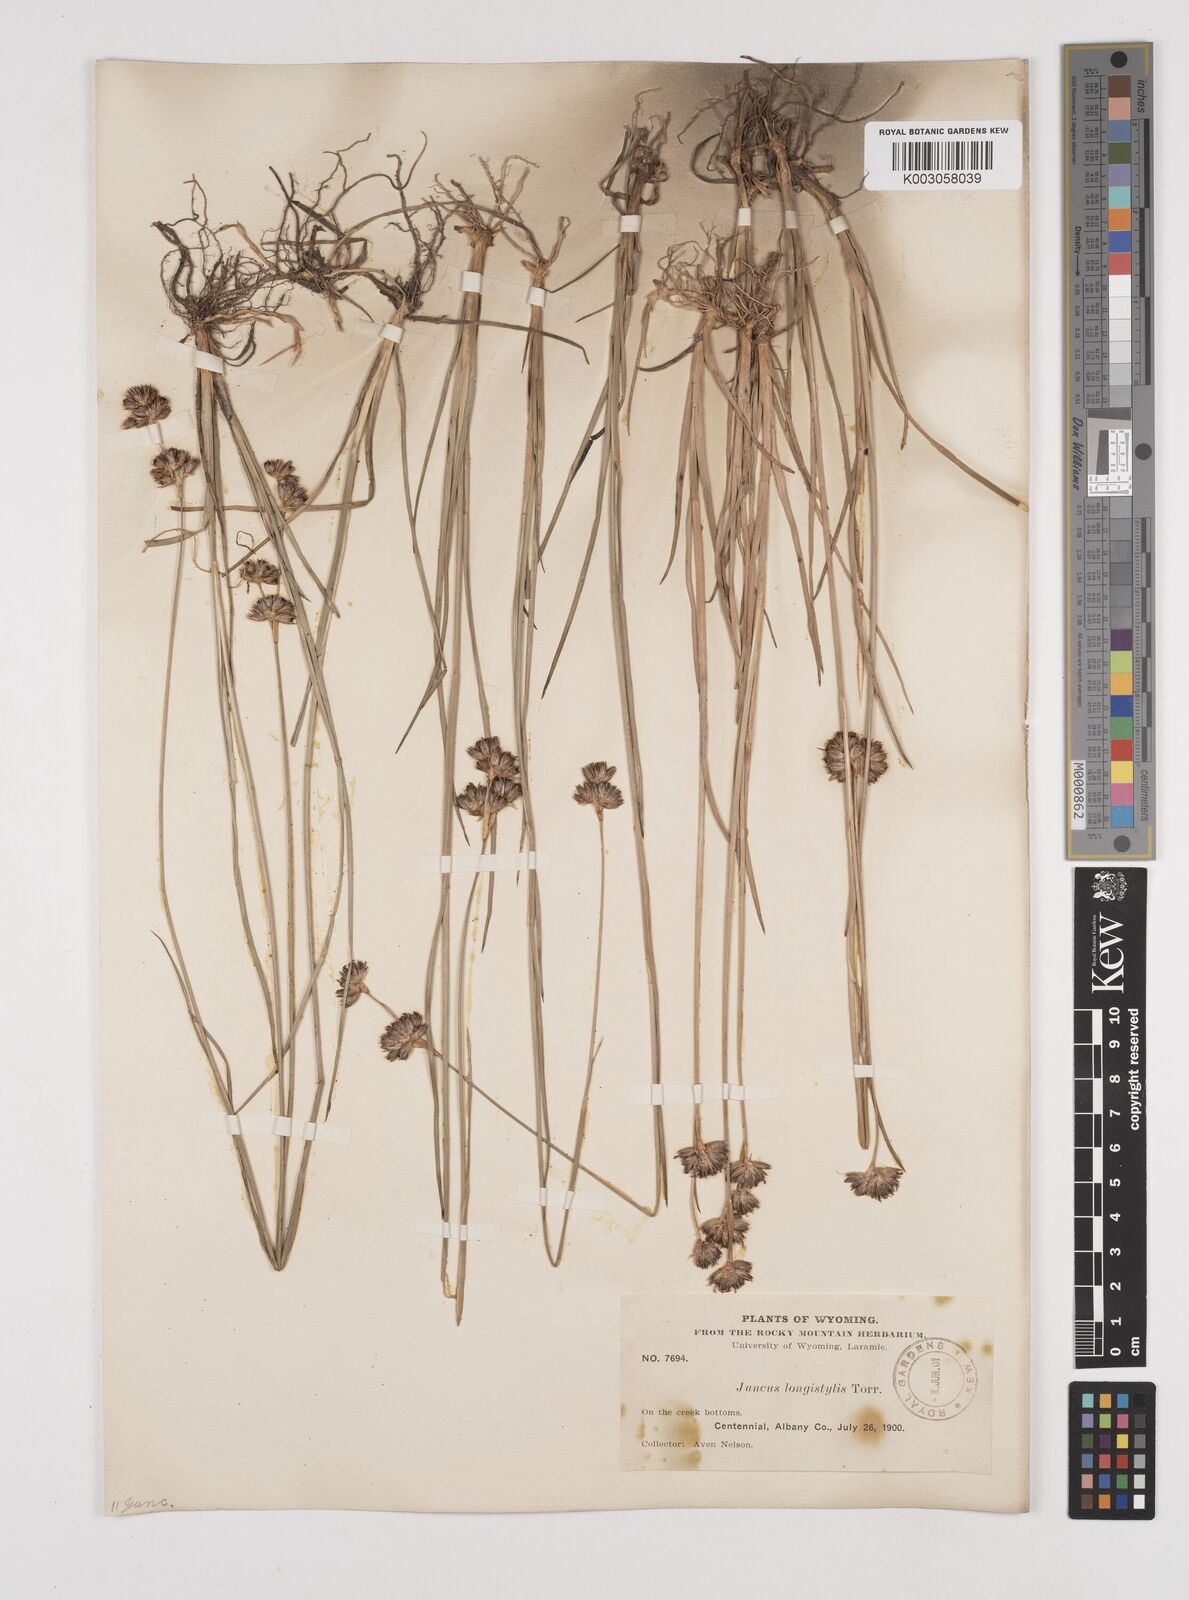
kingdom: Plantae
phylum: Tracheophyta
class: Liliopsida
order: Poales
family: Juncaceae
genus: Juncus
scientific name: Juncus longistylis
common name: Long-style rush
